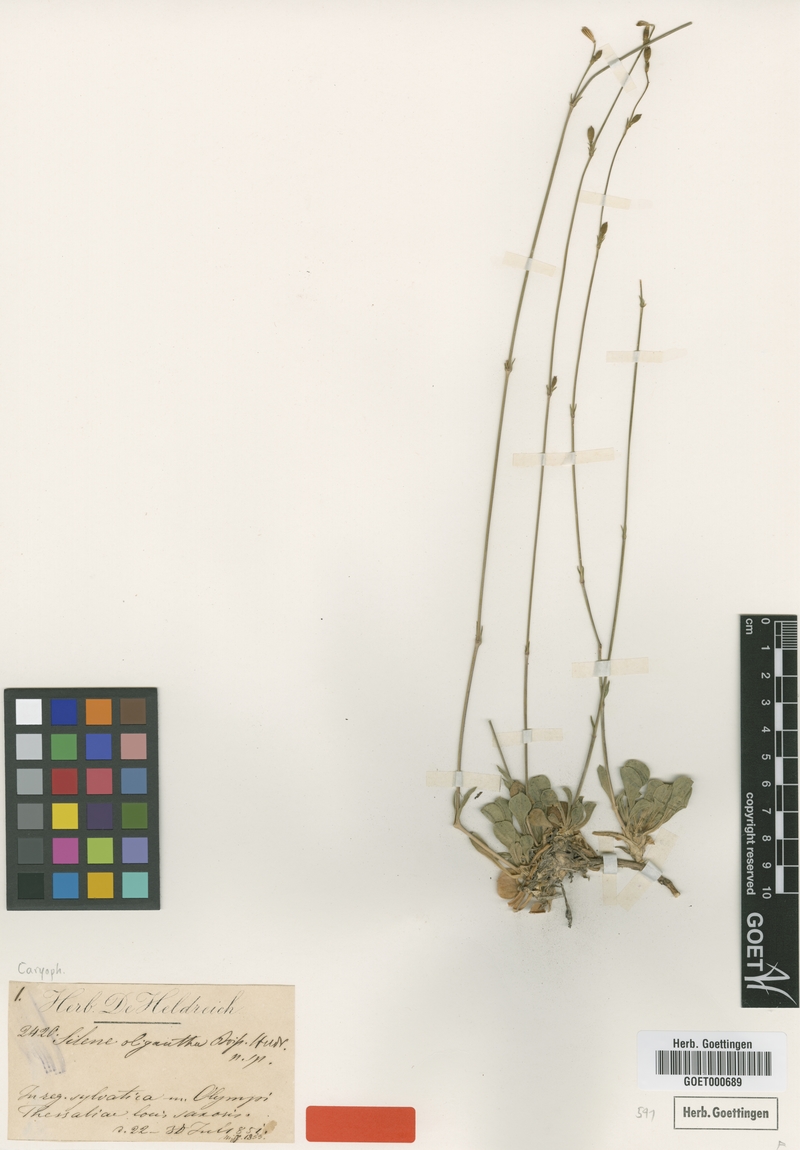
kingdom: Plantae
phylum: Tracheophyta
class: Magnoliopsida
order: Caryophyllales
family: Caryophyllaceae
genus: Silene
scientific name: Silene oligantha
